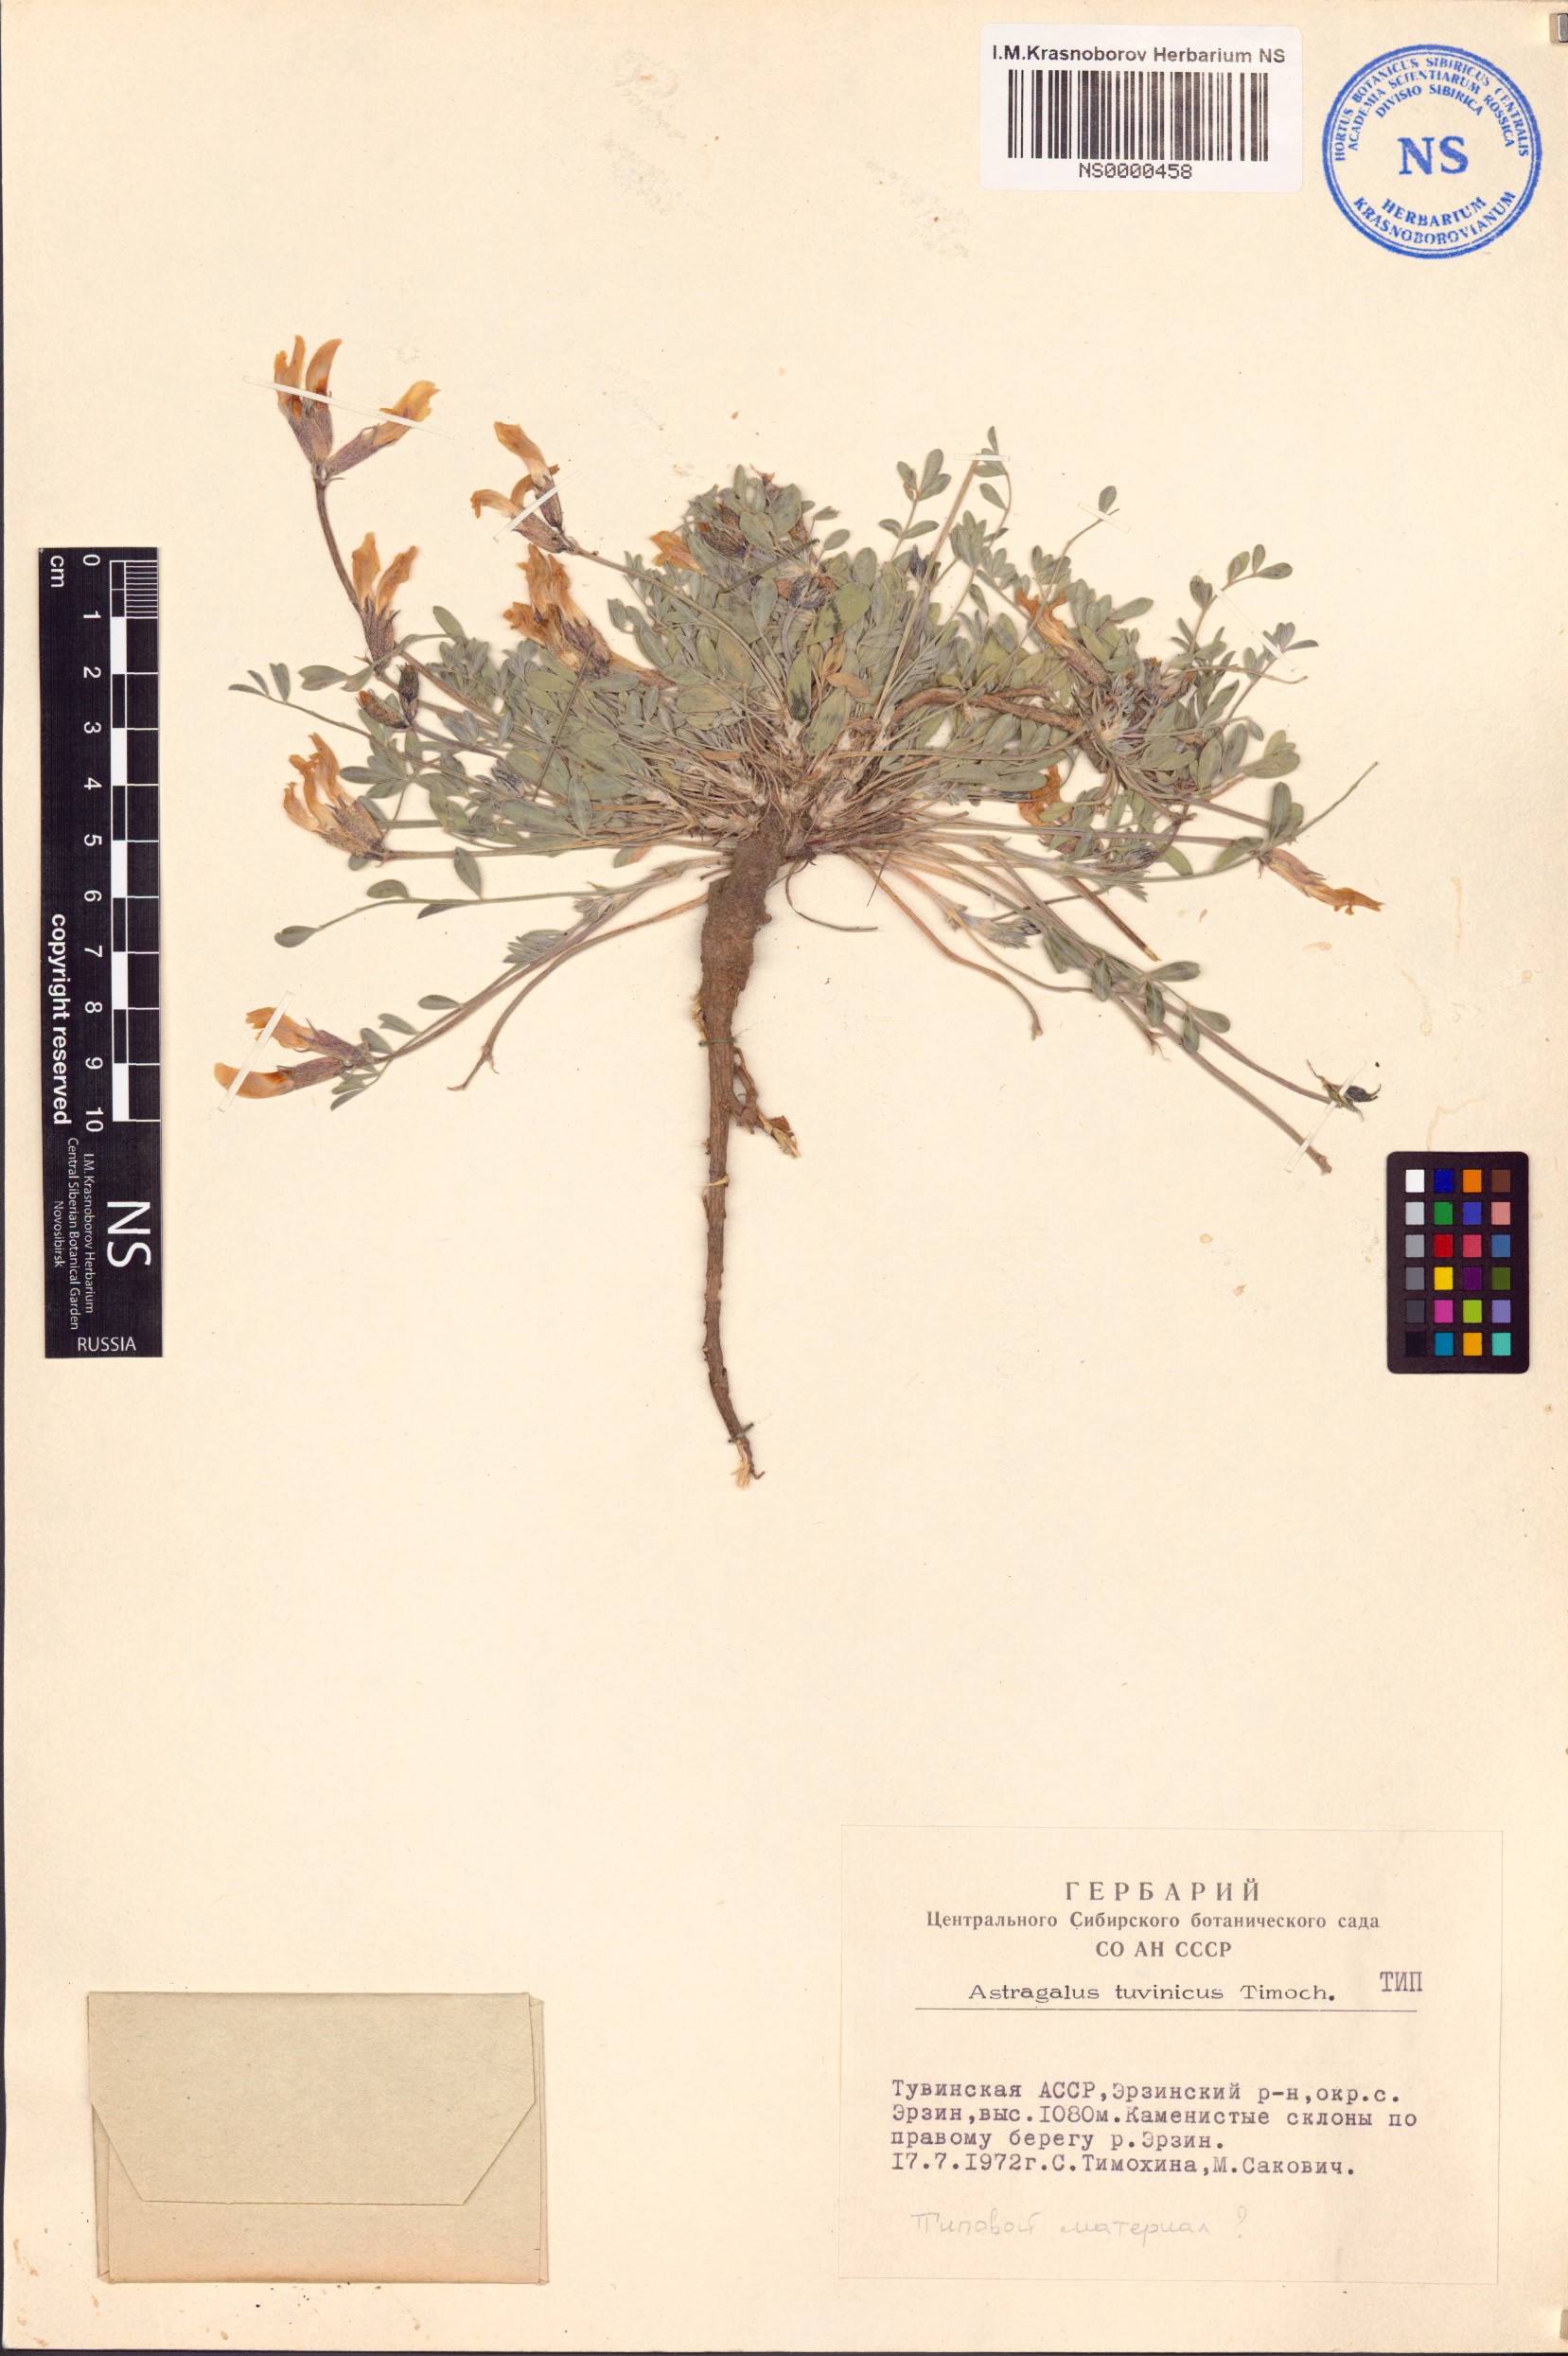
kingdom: Plantae
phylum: Tracheophyta
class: Magnoliopsida
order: Fabales
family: Fabaceae
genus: Astragalus
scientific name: Astragalus gregorii
